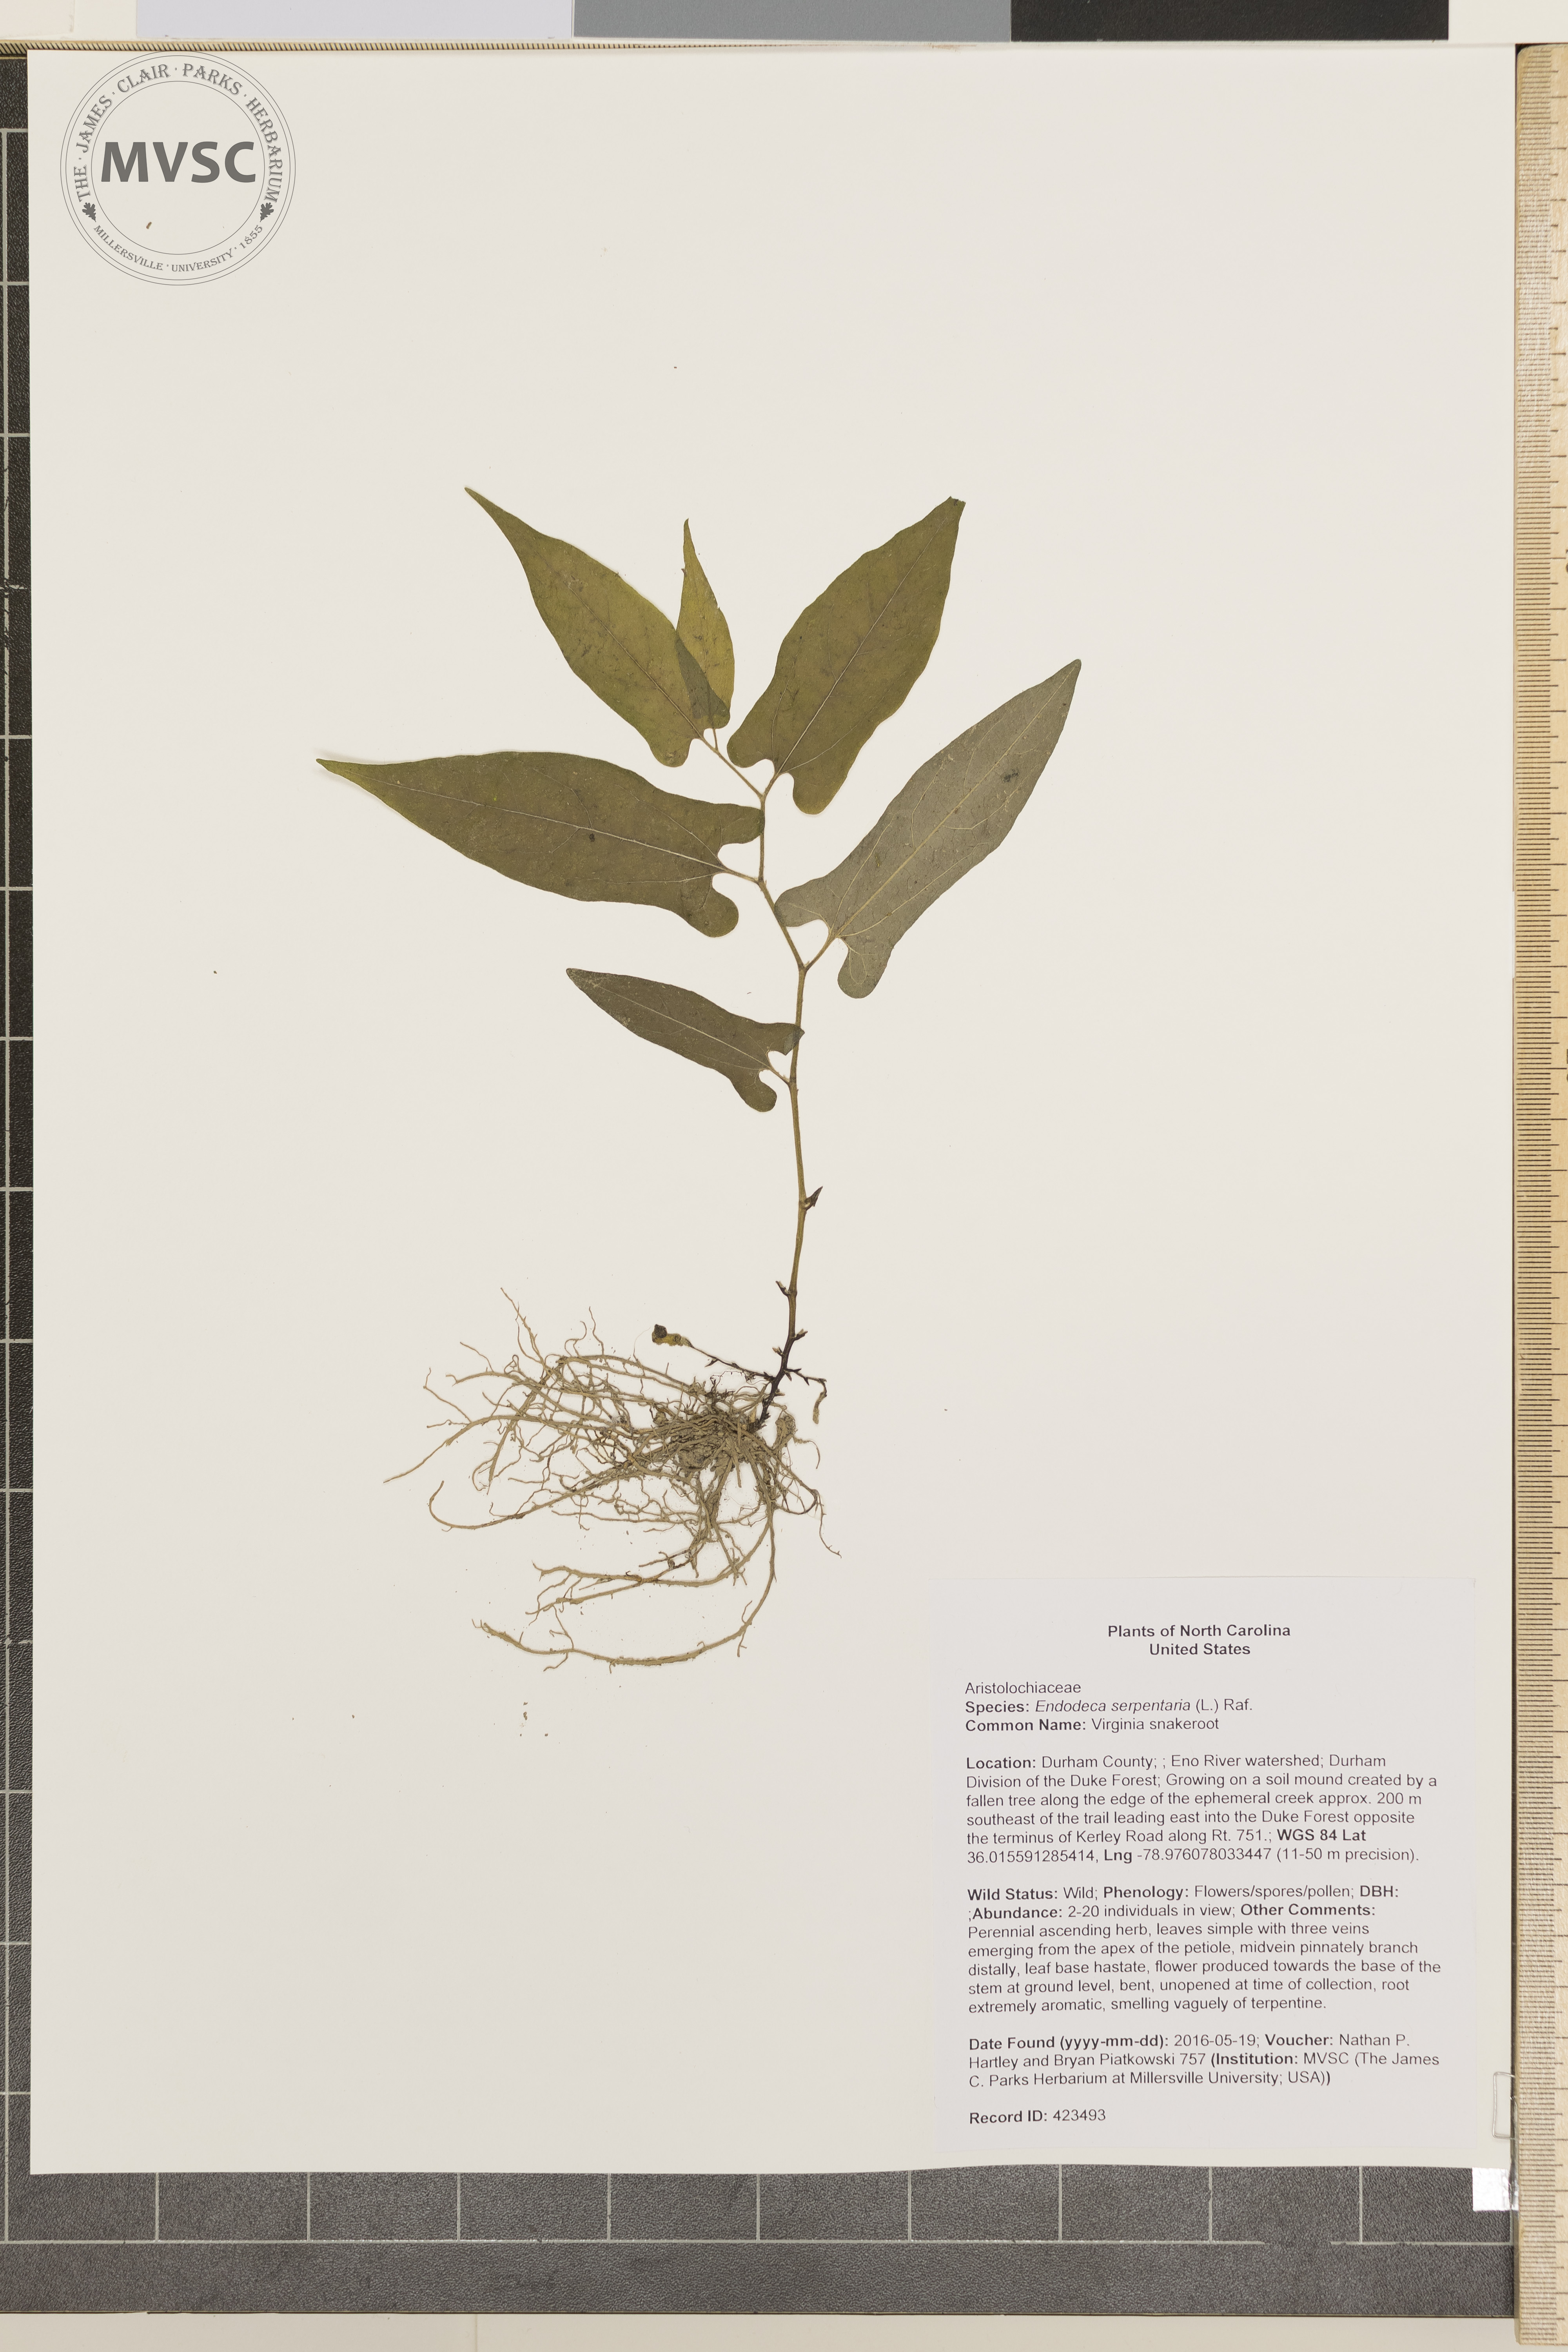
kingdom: Plantae
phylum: Tracheophyta
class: Magnoliopsida
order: Piperales
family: Aristolochiaceae
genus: Endodeca
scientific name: Endodeca serpentaria
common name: Virginia snakeroot
